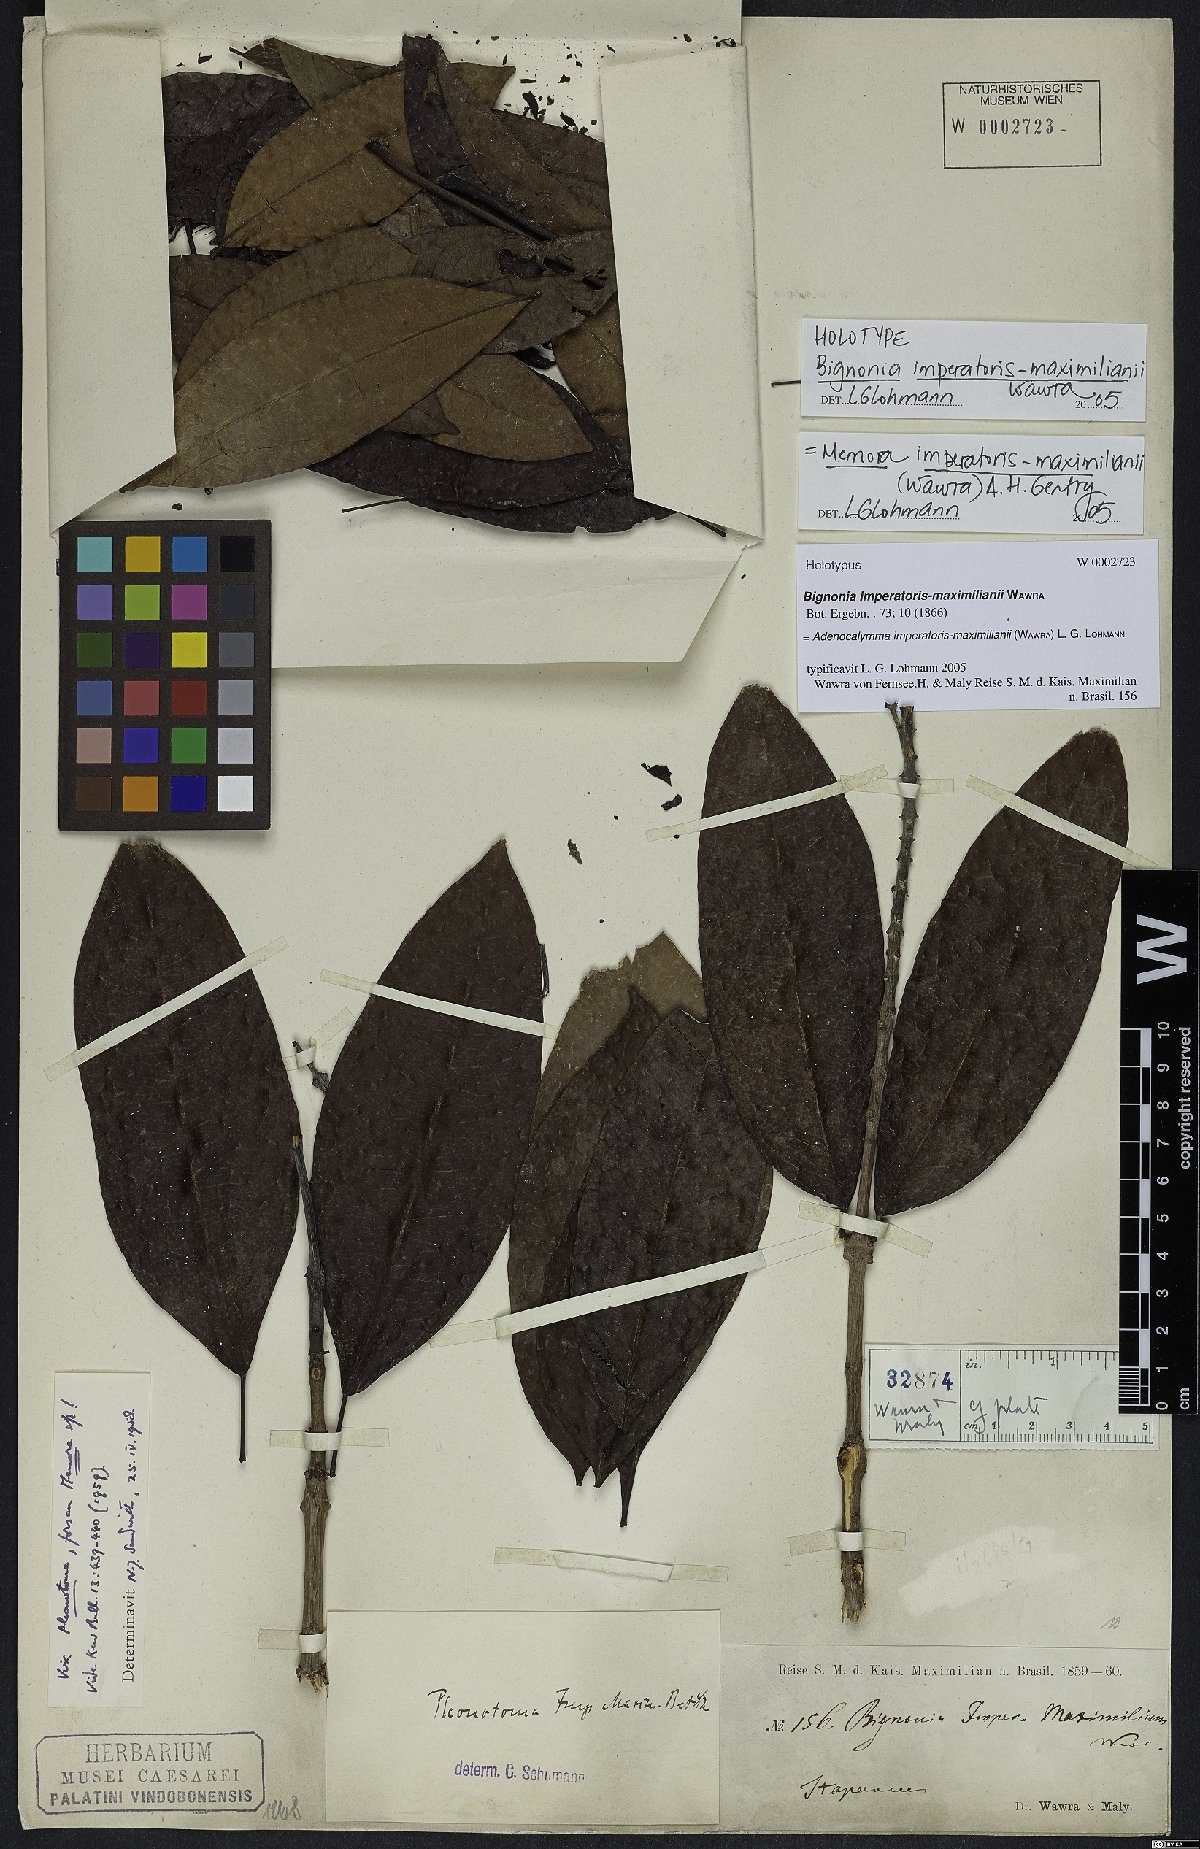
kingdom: Plantae
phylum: Tracheophyta
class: Magnoliopsida
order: Lamiales
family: Bignoniaceae
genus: Adenocalymma
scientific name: Adenocalymma imperatoris-maximilianii
